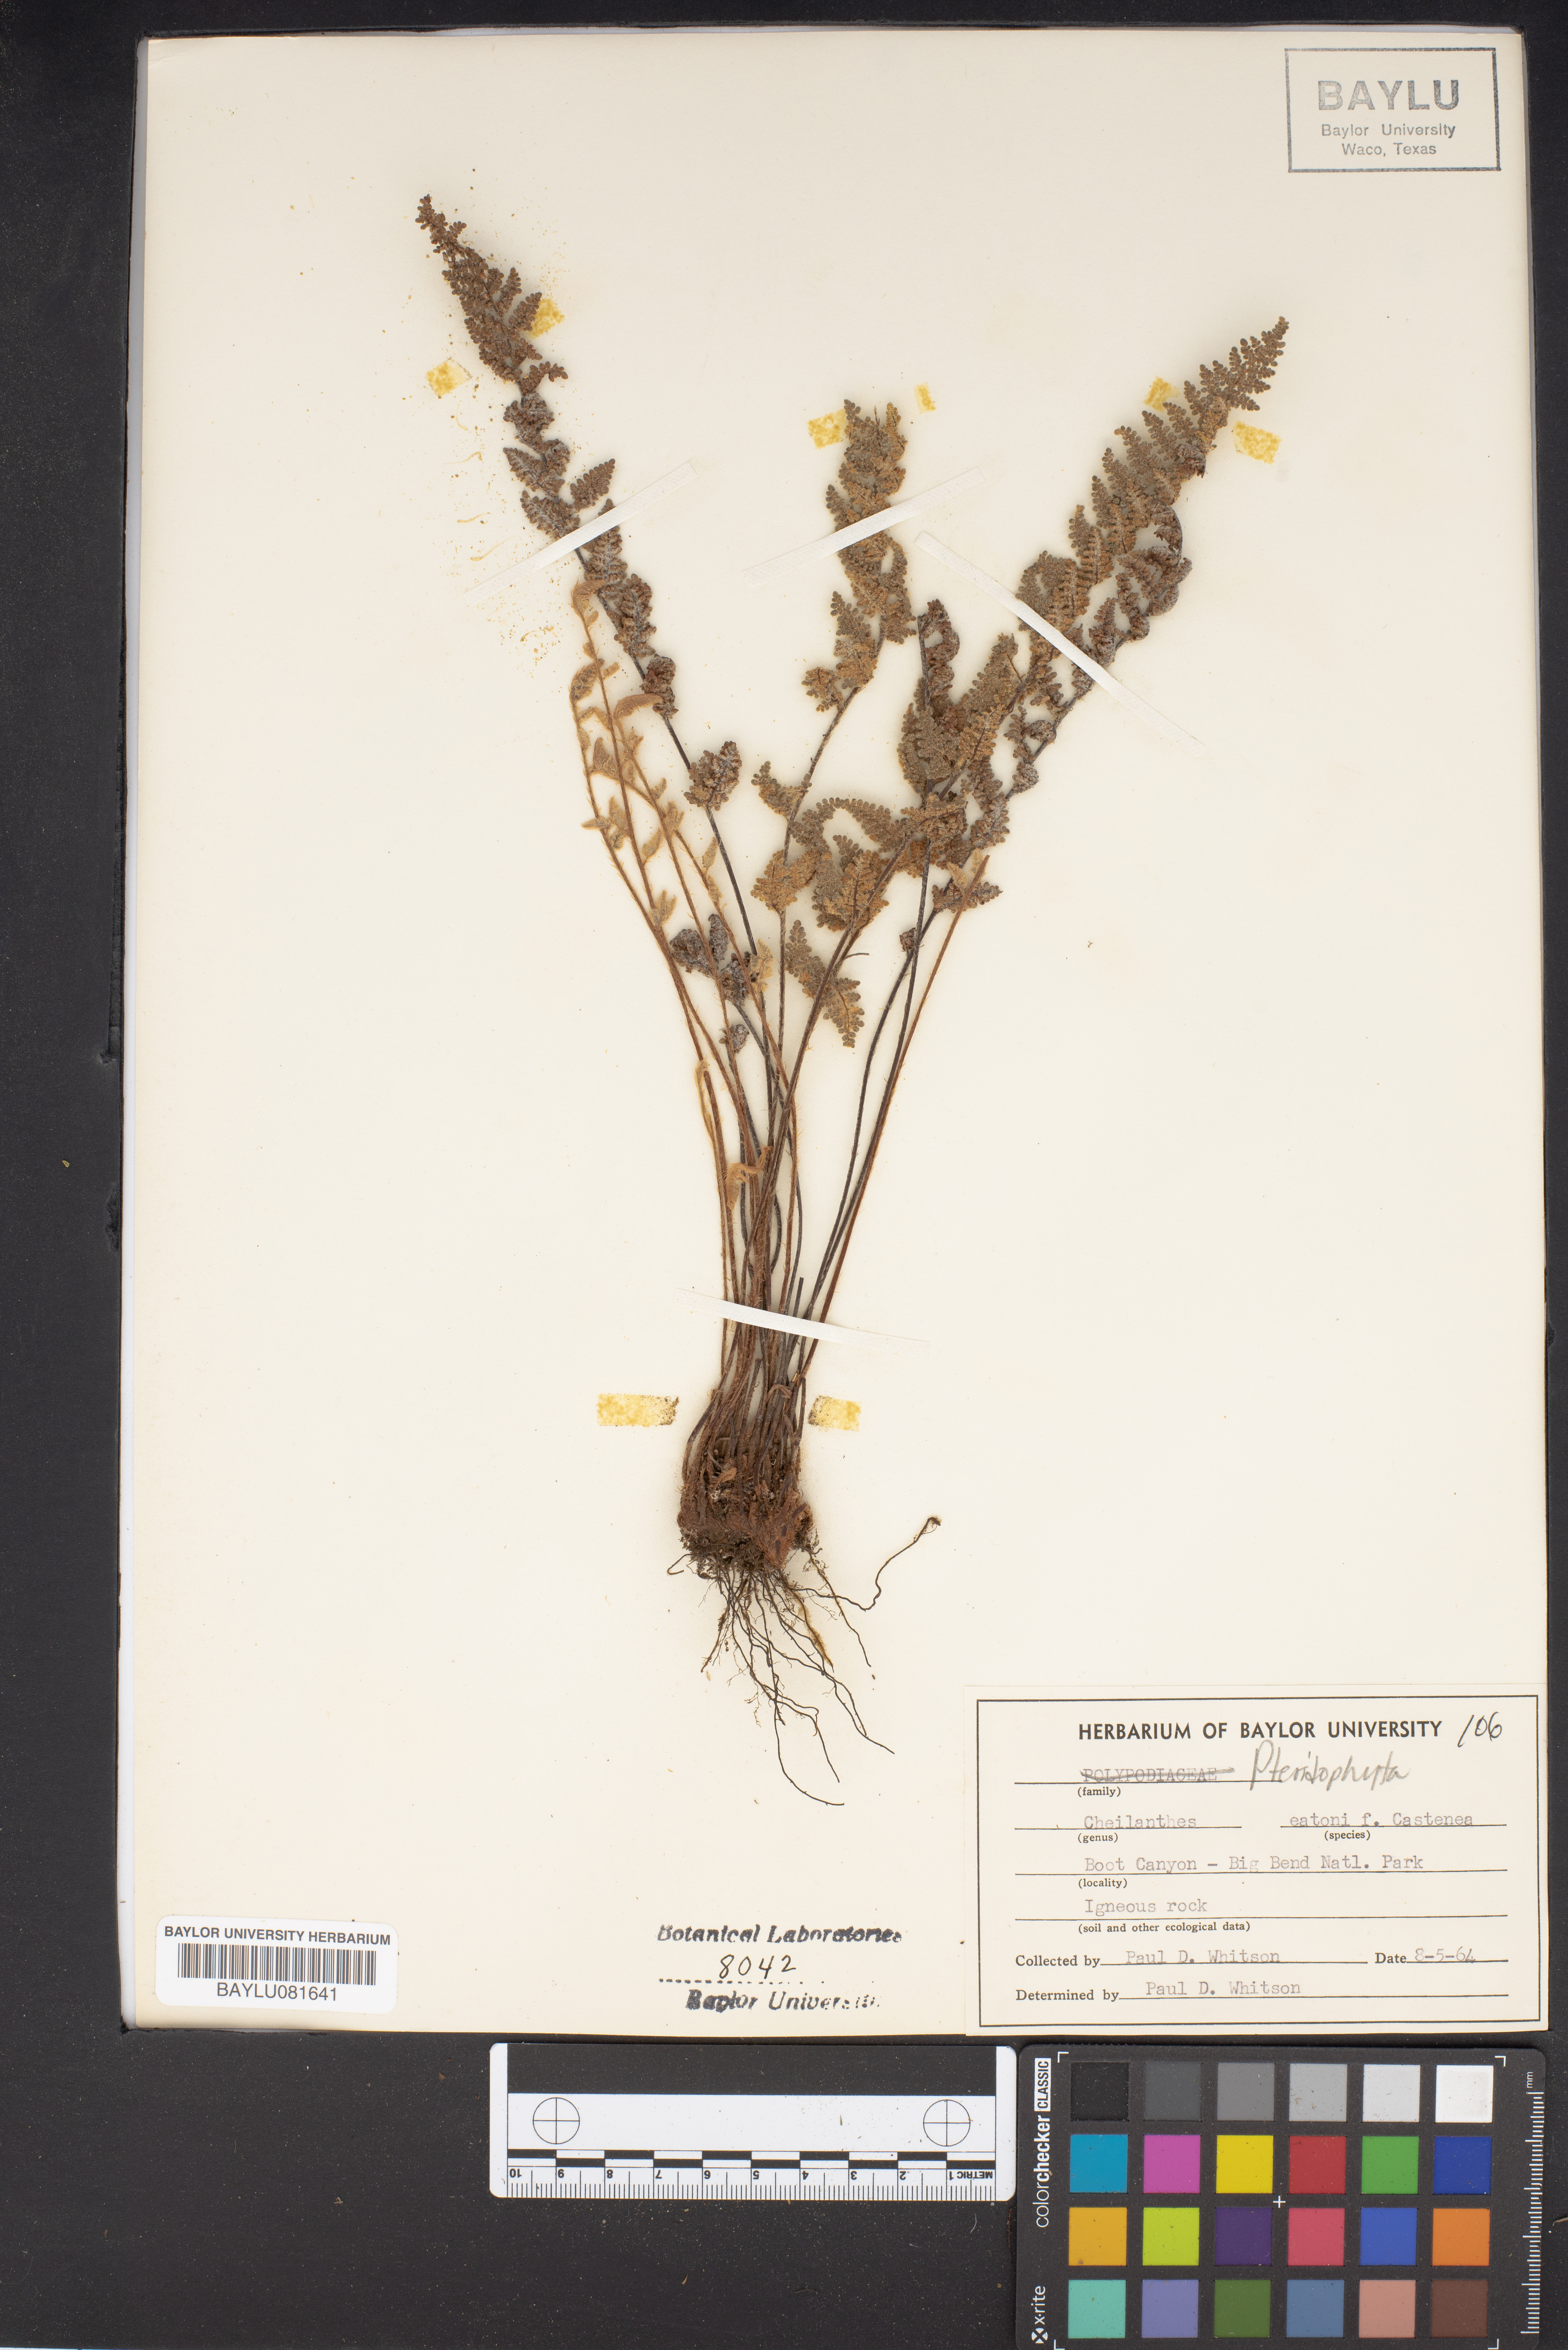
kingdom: Plantae
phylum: Tracheophyta
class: Polypodiopsida
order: Polypodiales
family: Pteridaceae
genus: Myriopteris
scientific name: Myriopteris rufa
